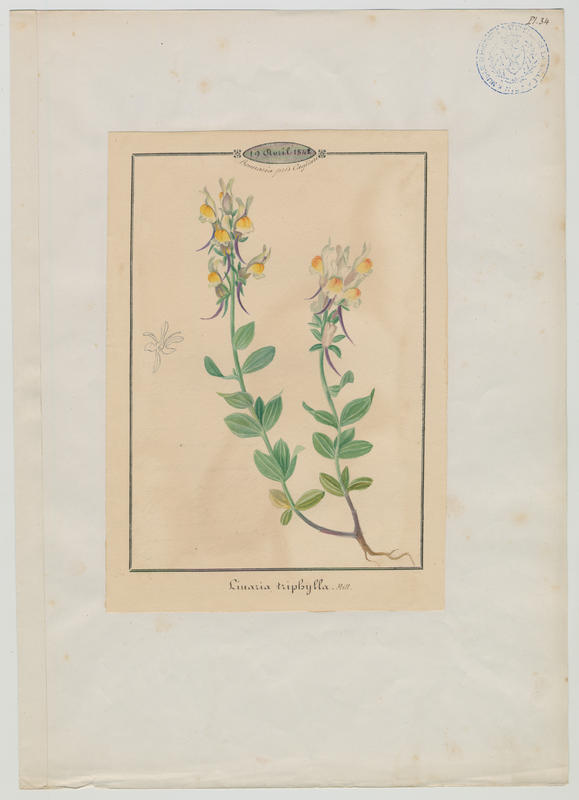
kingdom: Plantae
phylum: Tracheophyta
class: Magnoliopsida
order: Lamiales
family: Plantaginaceae
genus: Linaria
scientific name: Linaria triphylla
